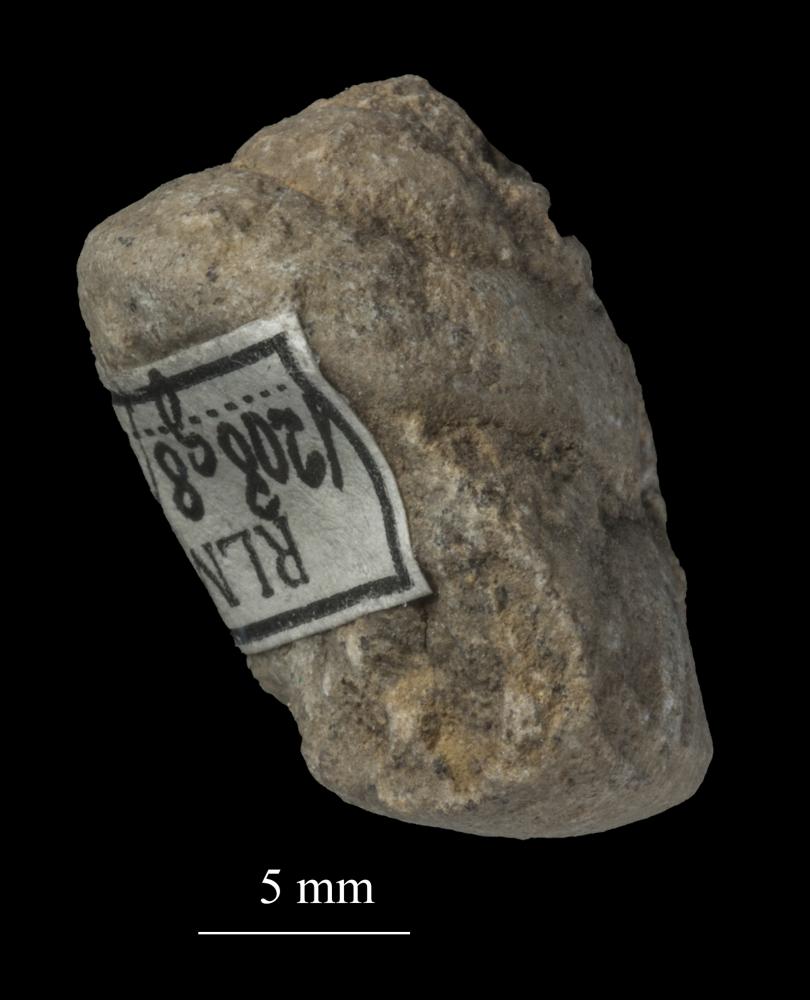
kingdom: Animalia
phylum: Mollusca
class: Gastropoda
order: Trochida
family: Trochidae
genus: Trochus
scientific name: Trochus ellipticus
